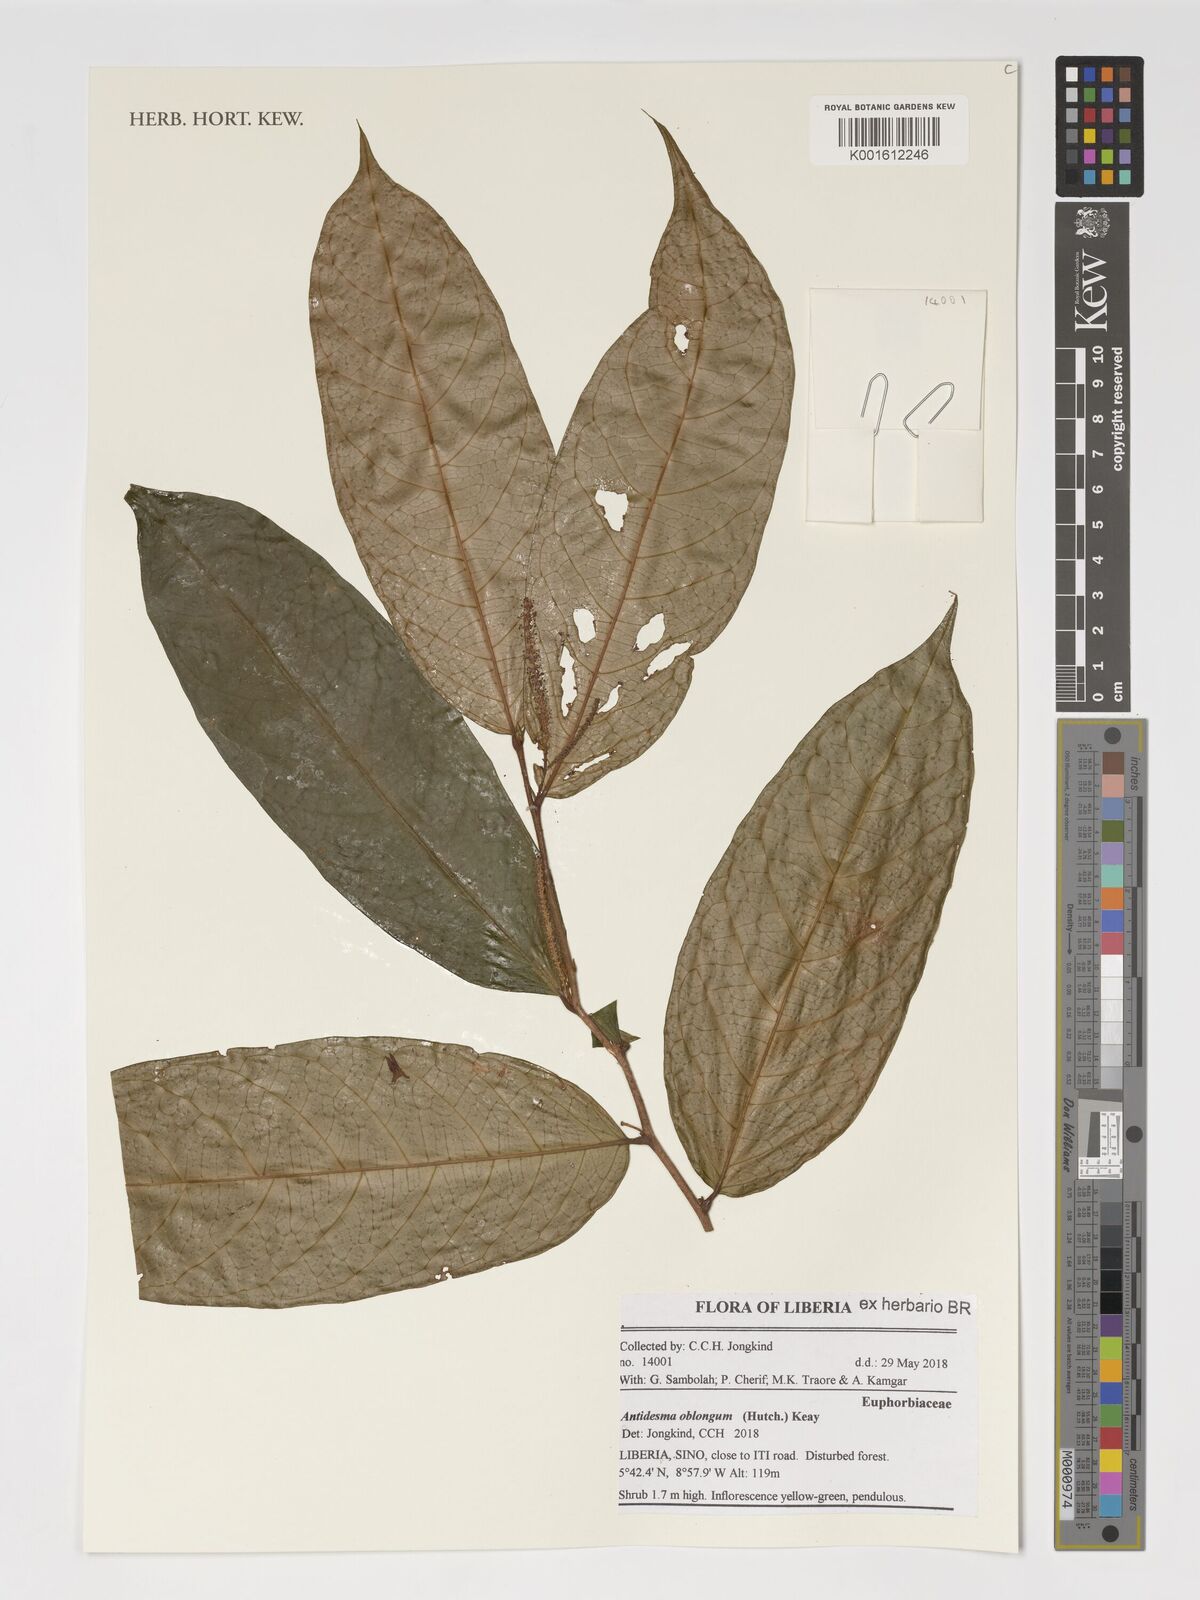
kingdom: Plantae
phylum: Tracheophyta
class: Magnoliopsida
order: Malpighiales
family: Phyllanthaceae
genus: Antidesma
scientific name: Antidesma oblongum
